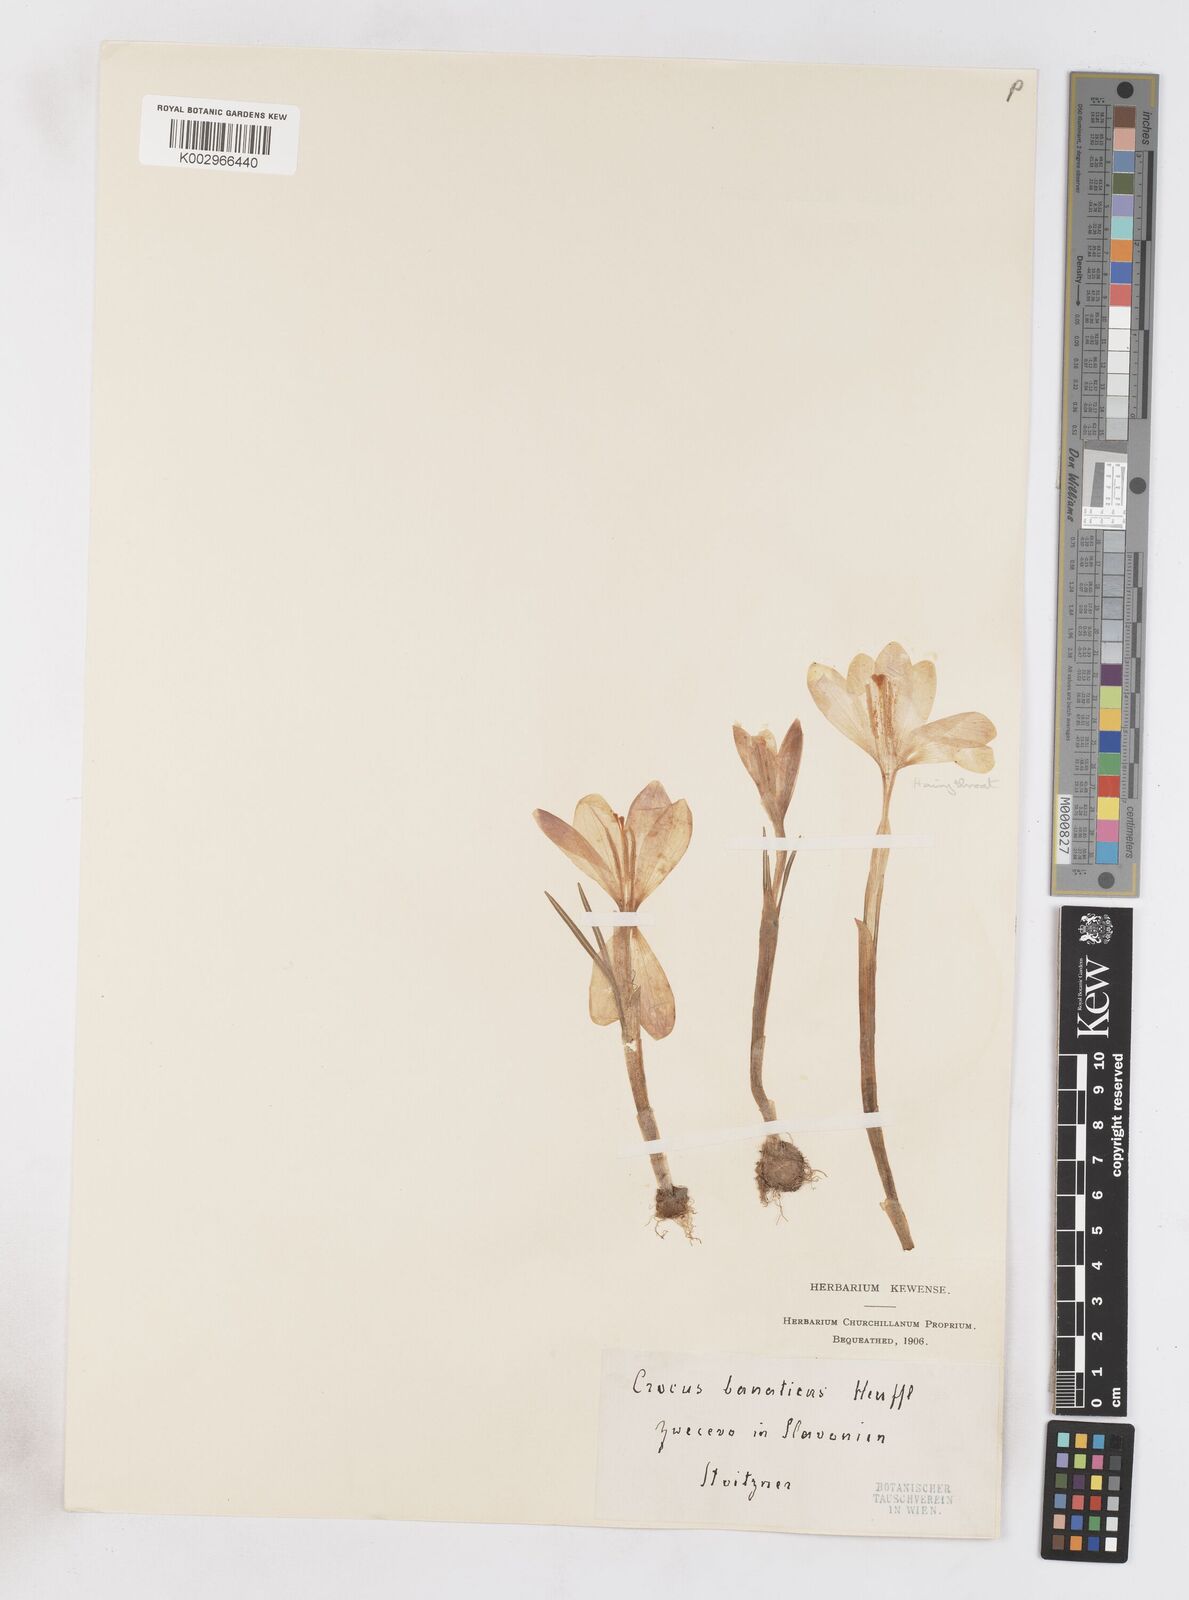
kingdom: Plantae
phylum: Tracheophyta
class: Liliopsida
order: Asparagales
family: Iridaceae
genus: Crocus
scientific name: Crocus vernus
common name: Spring crocus
